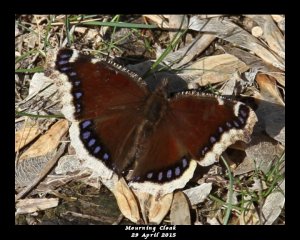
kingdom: Animalia
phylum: Arthropoda
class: Insecta
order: Lepidoptera
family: Nymphalidae
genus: Nymphalis
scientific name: Nymphalis antiopa
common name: Mourning Cloak
